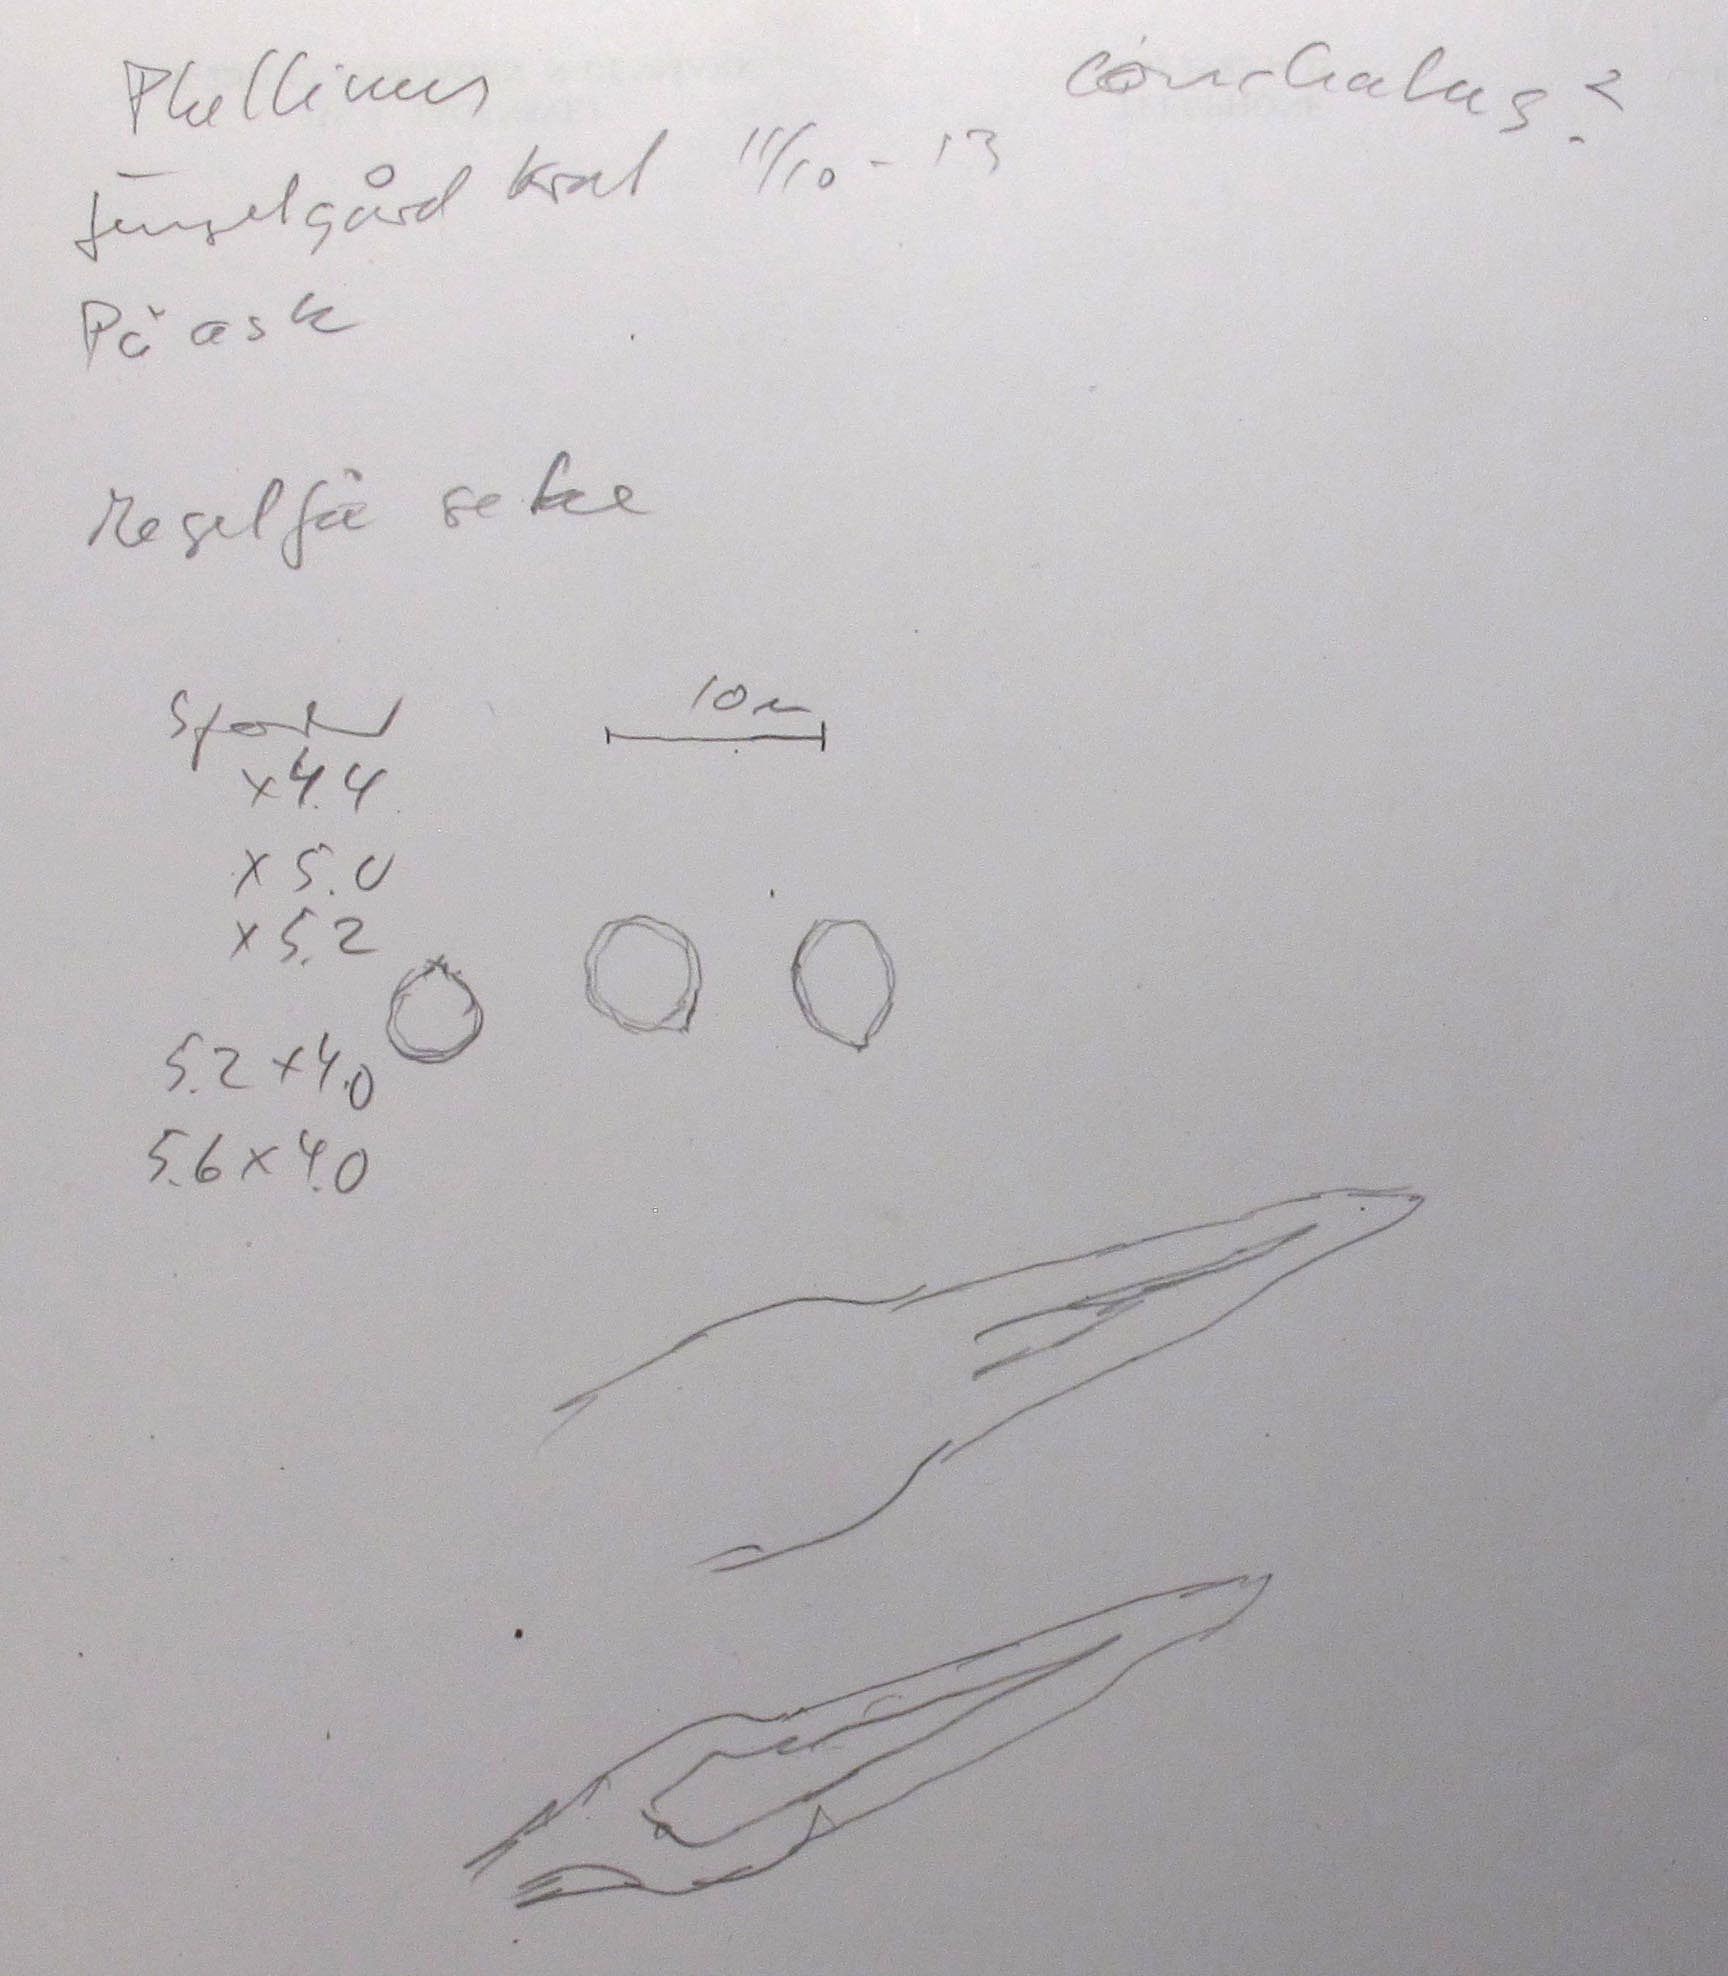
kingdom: Fungi
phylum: Basidiomycota
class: Agaricomycetes
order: Hymenochaetales
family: Hymenochaetaceae
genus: Phellinopsis
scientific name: Phellinopsis conchata
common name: pile-ildporesvamp
